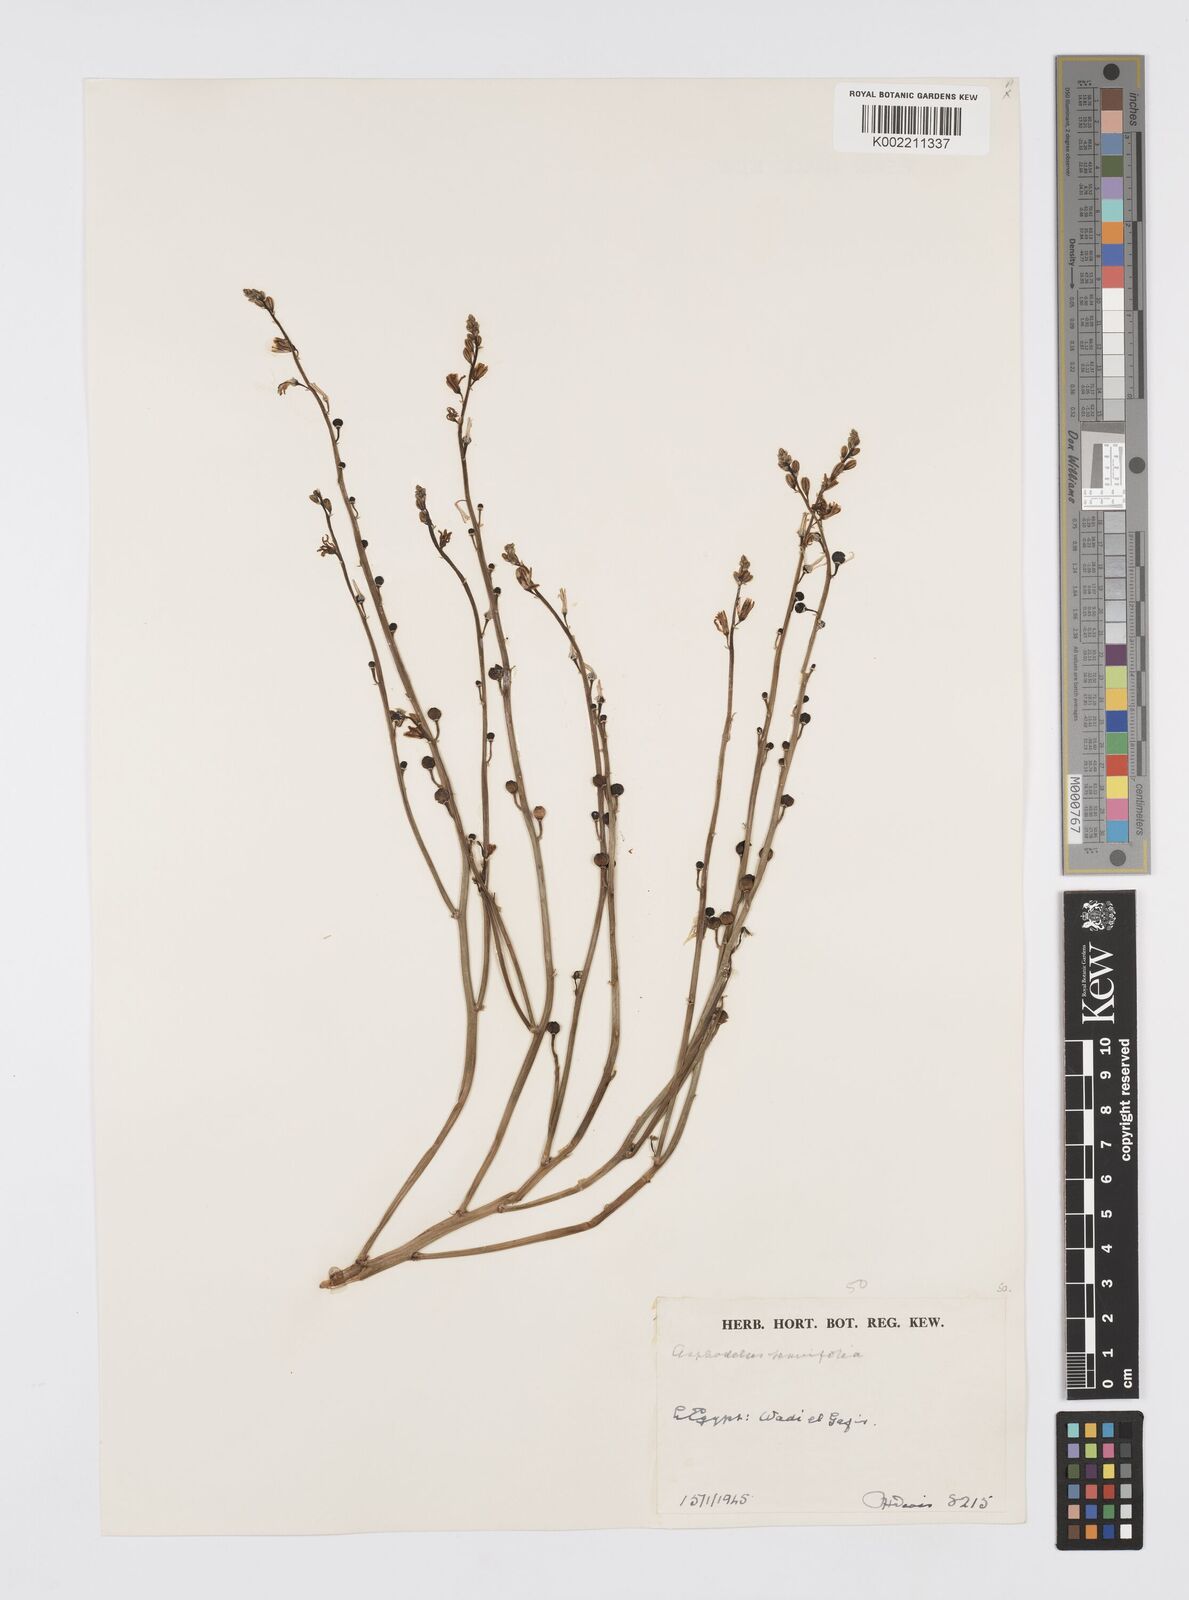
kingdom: Plantae
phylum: Tracheophyta
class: Liliopsida
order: Asparagales
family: Asphodelaceae
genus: Asphodelus
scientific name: Asphodelus tenuifolius
